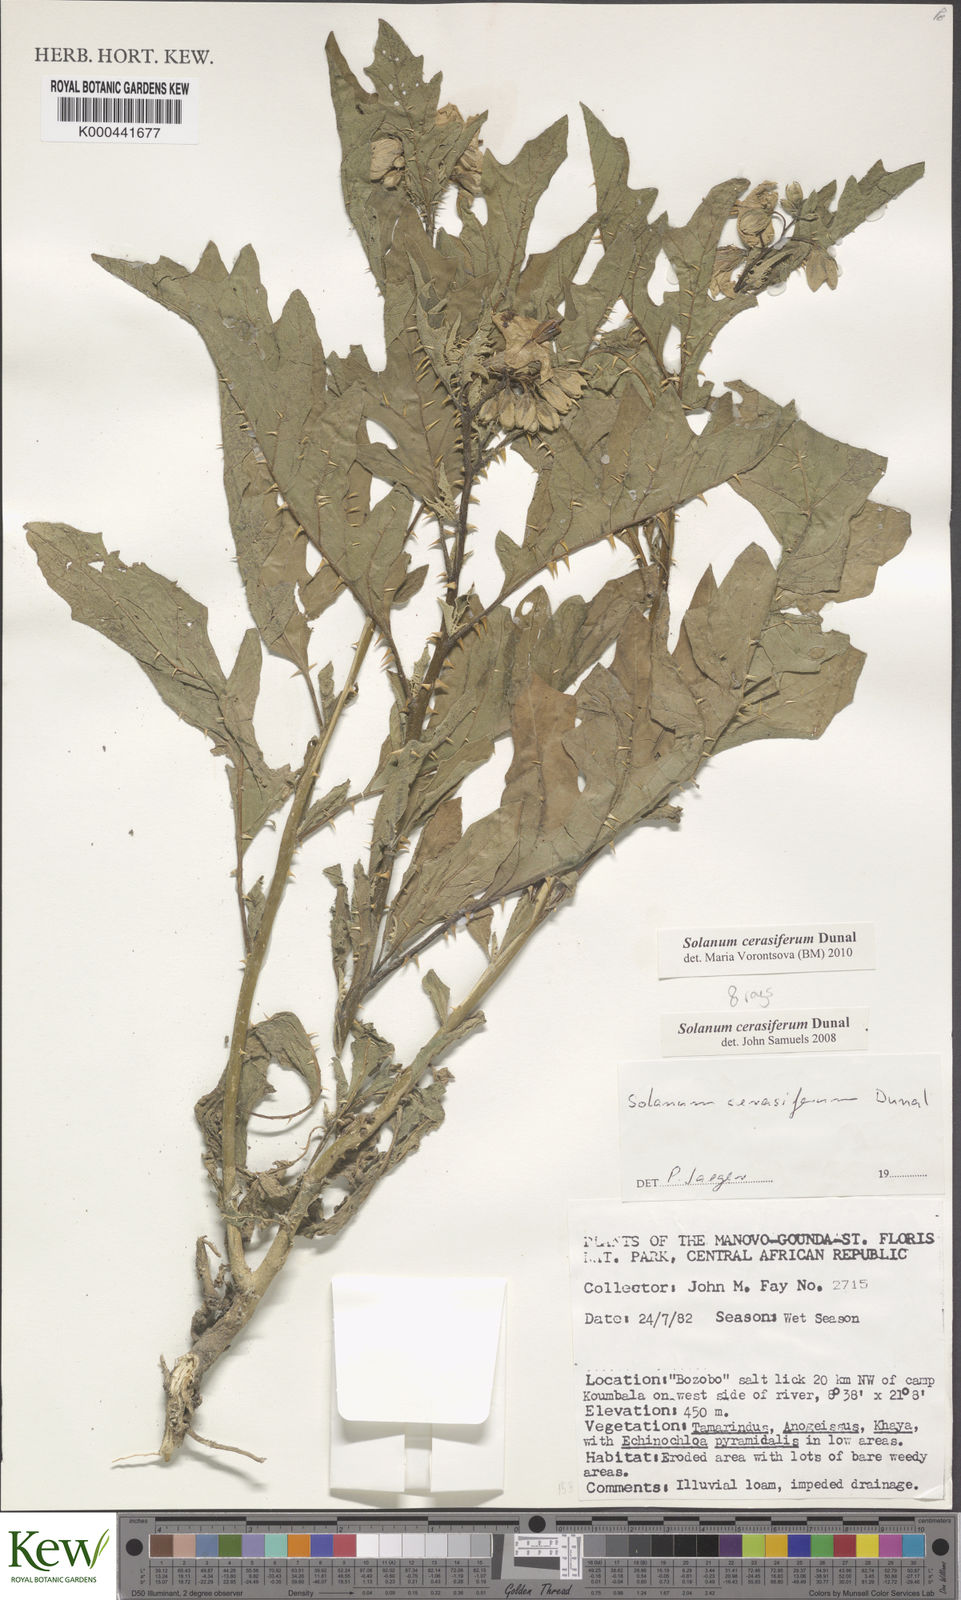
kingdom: Plantae
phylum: Tracheophyta
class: Magnoliopsida
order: Solanales
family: Solanaceae
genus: Solanum
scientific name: Solanum cerasiferum
